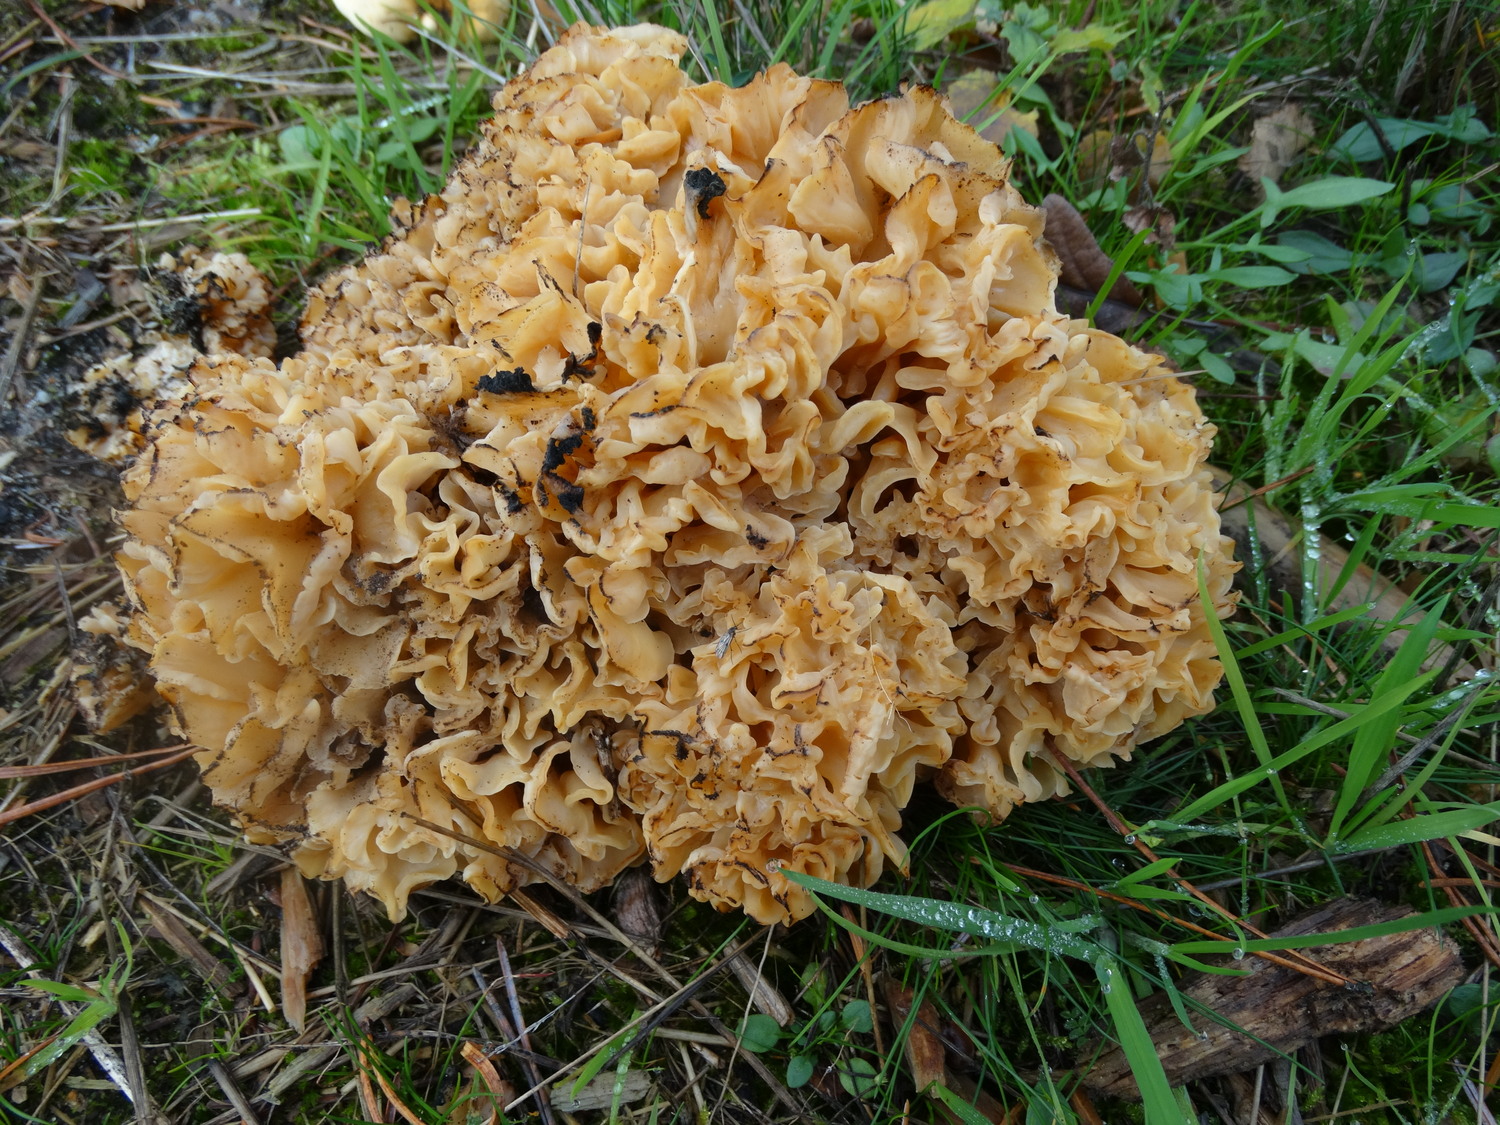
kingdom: Fungi
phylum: Basidiomycota
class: Agaricomycetes
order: Polyporales
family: Sparassidaceae
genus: Sparassis
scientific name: Sparassis crispa
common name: kruset blomkålssvamp
